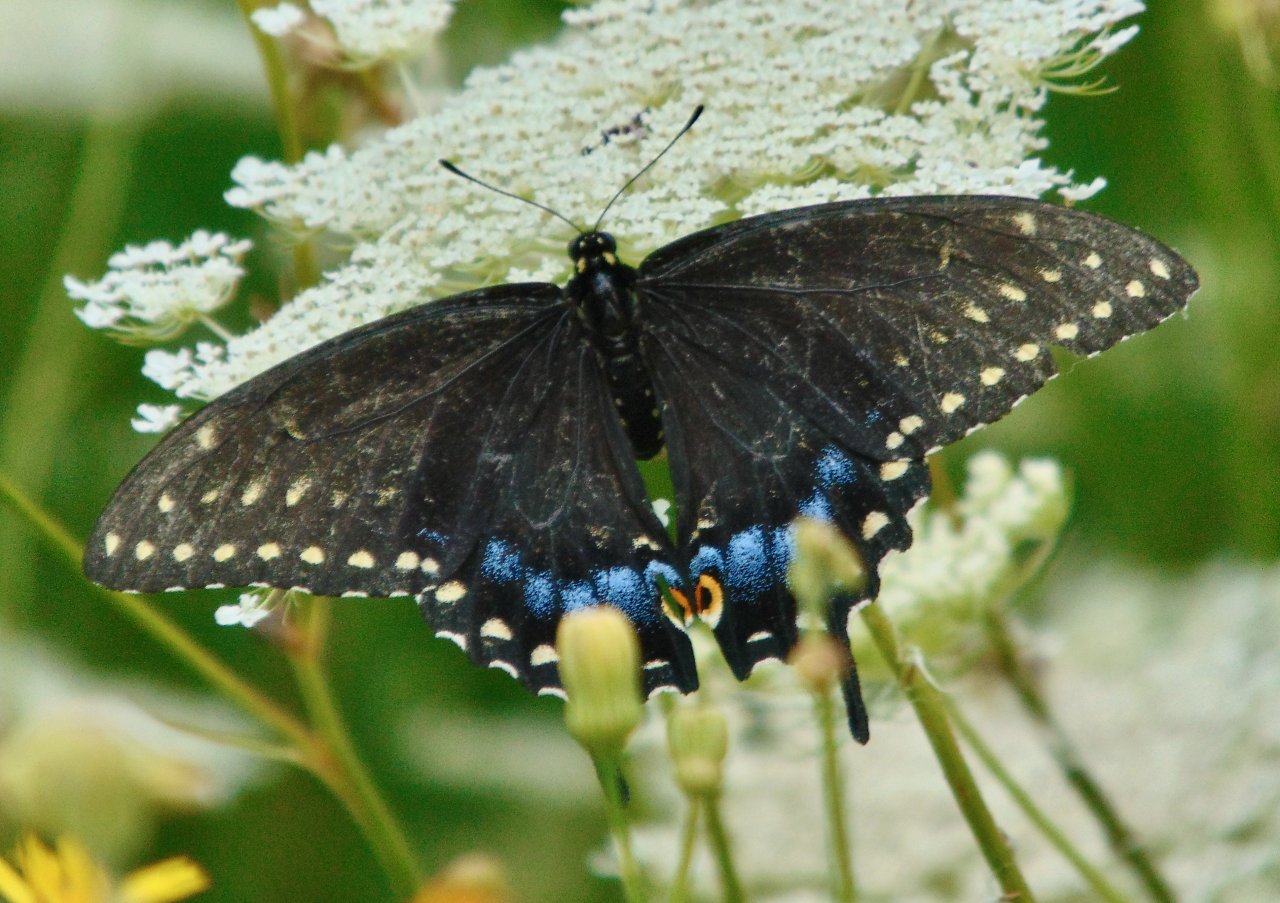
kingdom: Animalia
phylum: Arthropoda
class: Insecta
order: Lepidoptera
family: Papilionidae
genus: Papilio
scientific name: Papilio polyxenes
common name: Black Swallowtail
